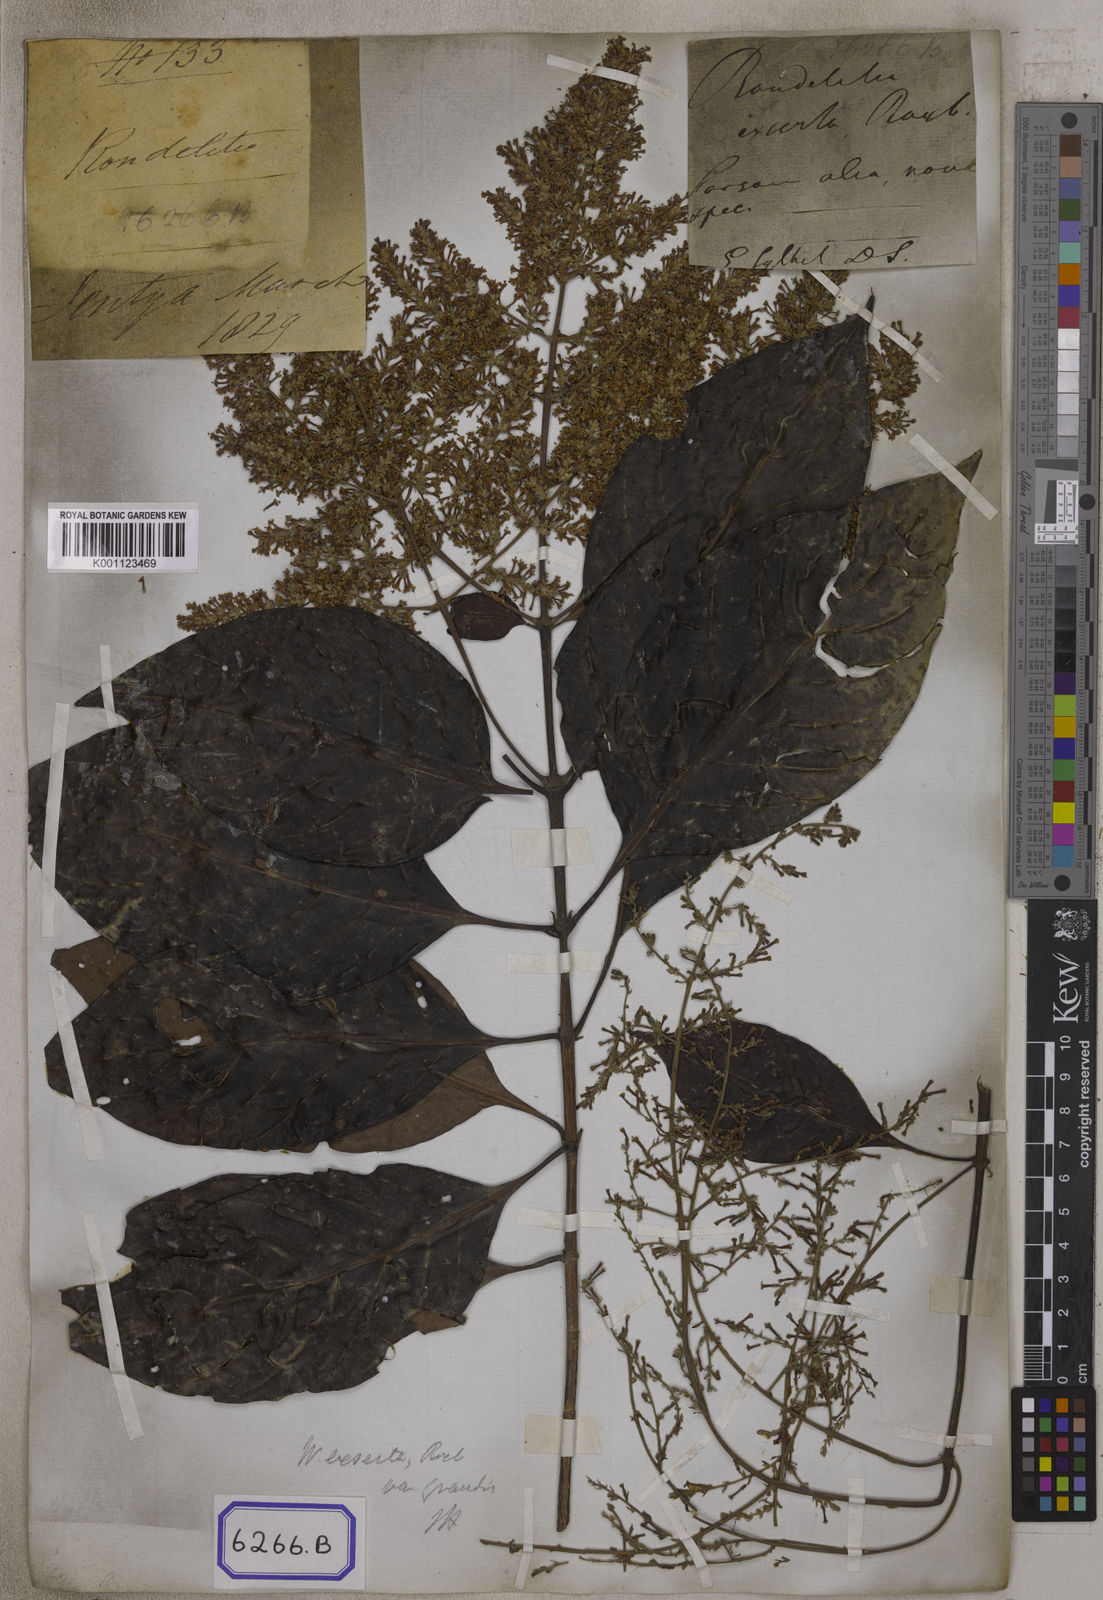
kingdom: Plantae
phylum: Tracheophyta
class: Magnoliopsida
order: Gentianales
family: Rubiaceae
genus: Wendlandia
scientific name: Wendlandia paniculata
